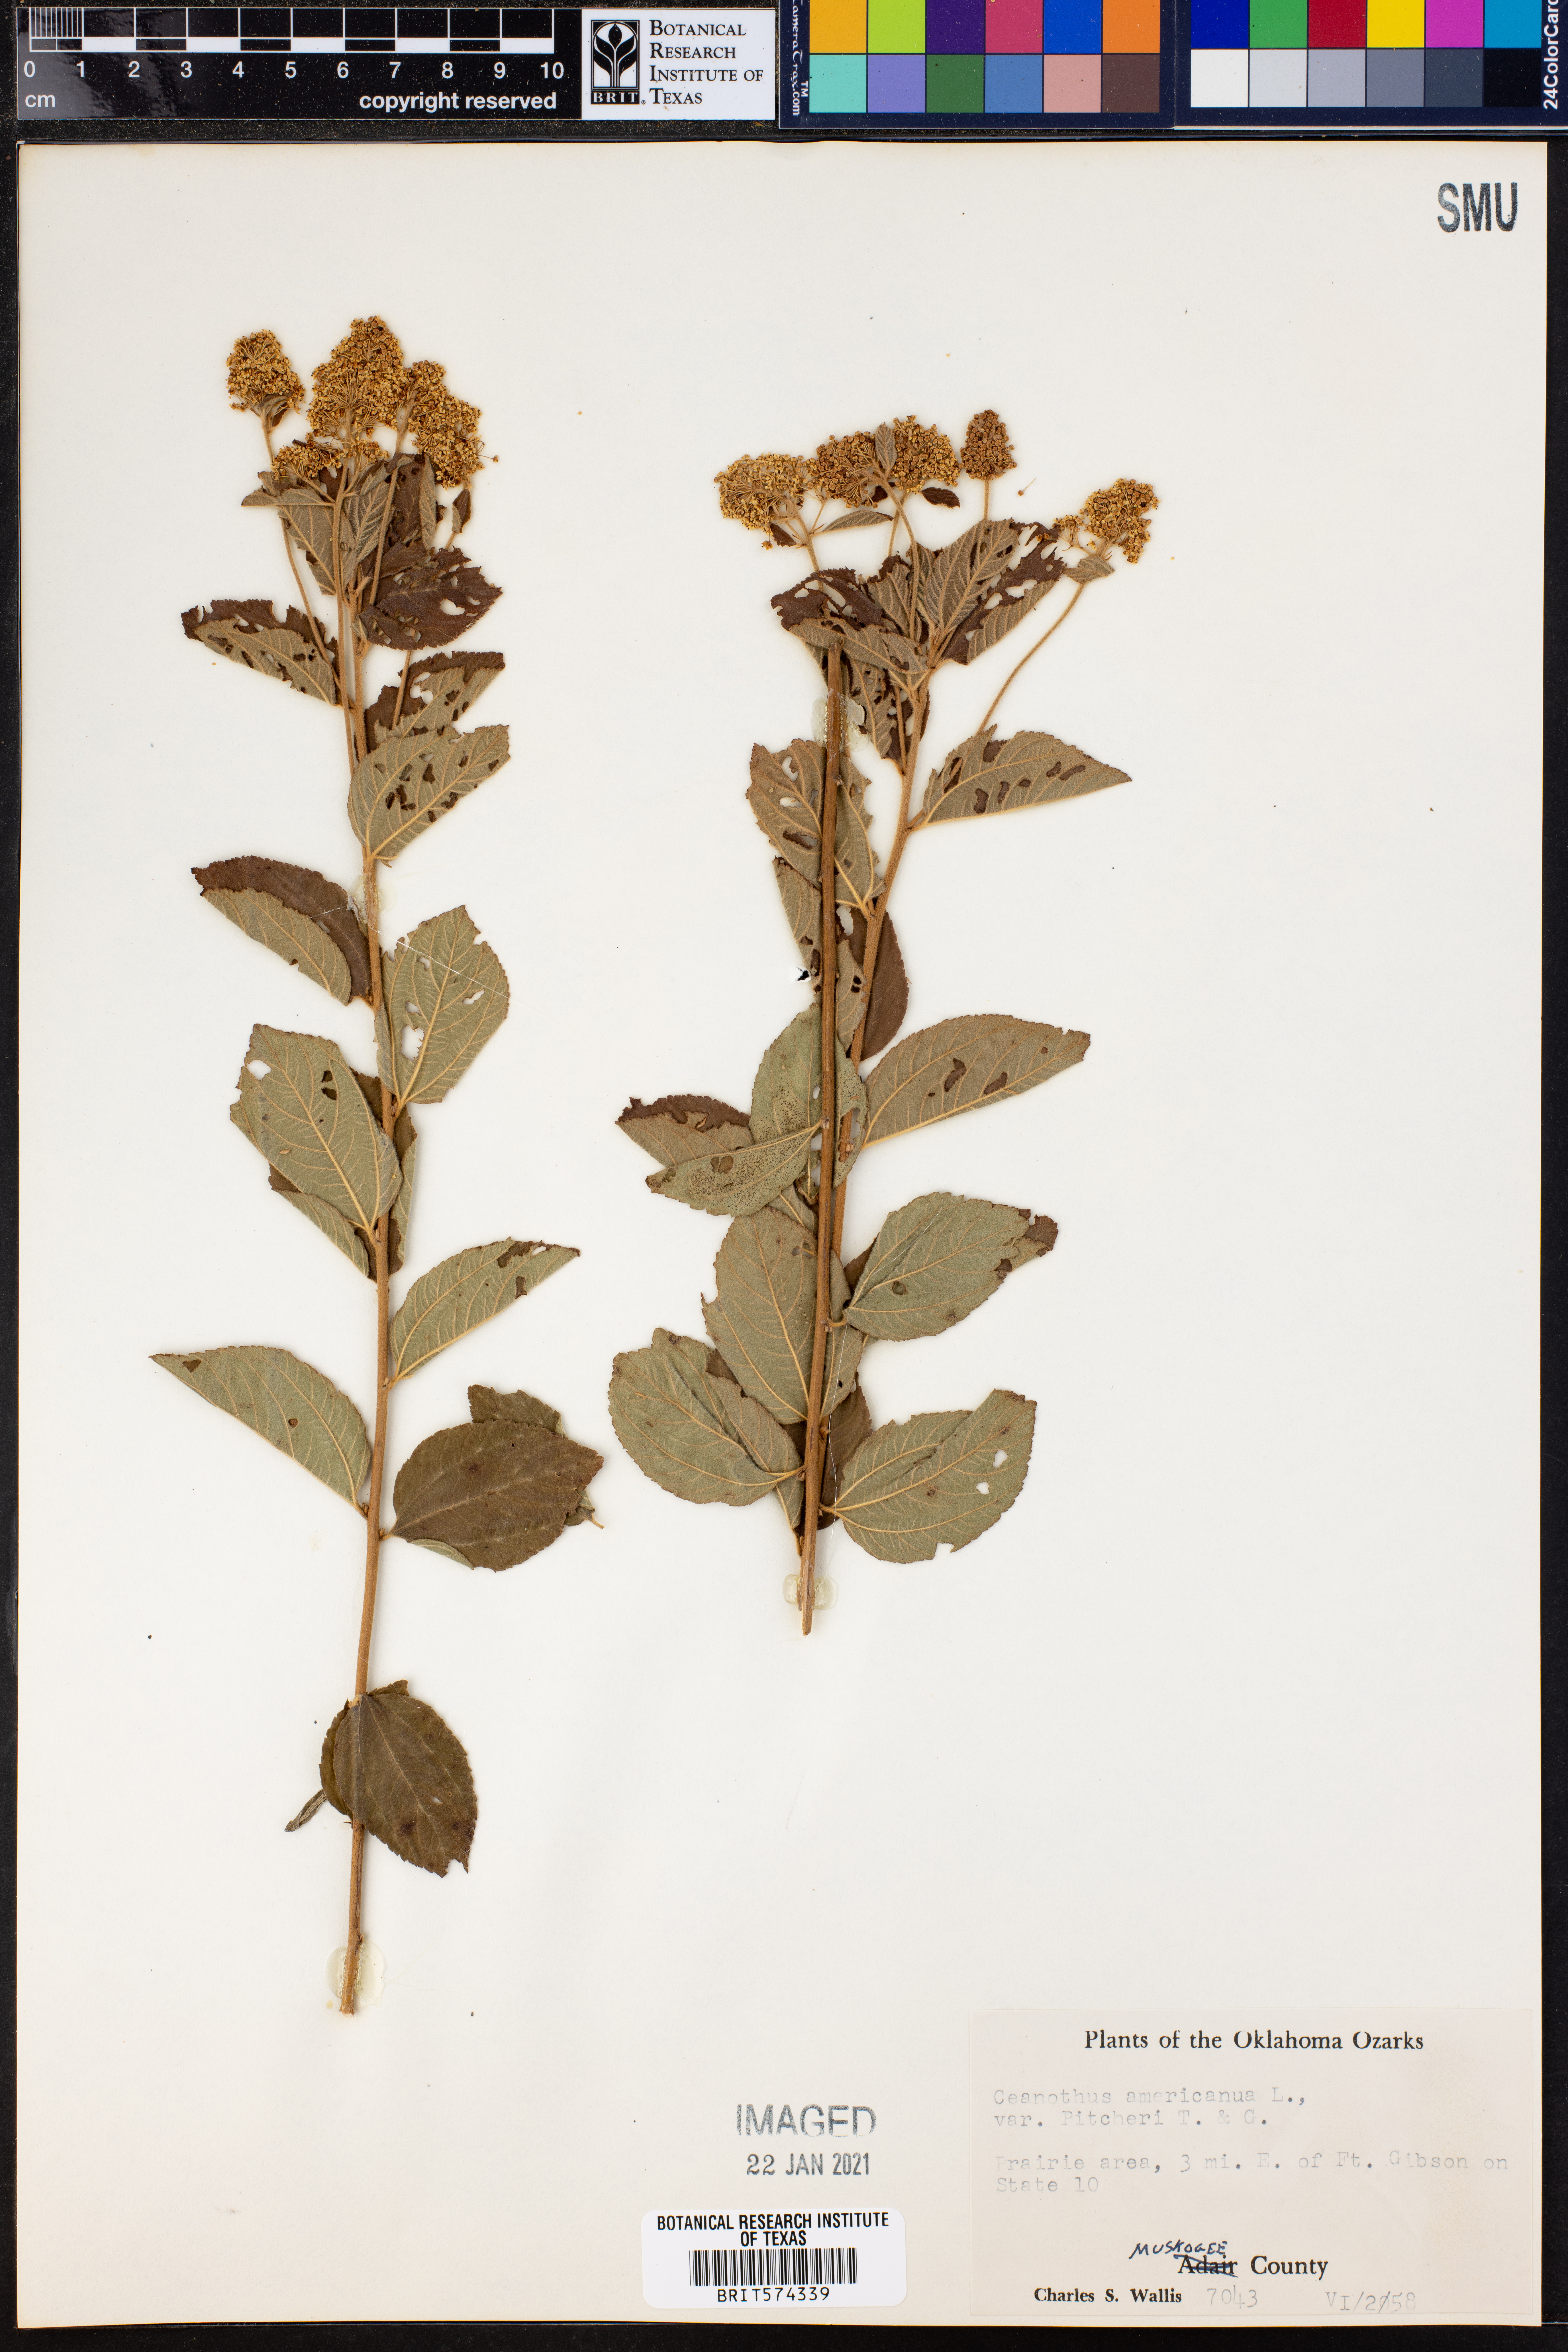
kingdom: Plantae
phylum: Tracheophyta
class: Magnoliopsida
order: Rosales
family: Rhamnaceae
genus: Ceanothus
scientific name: Ceanothus americanus
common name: Redroot
